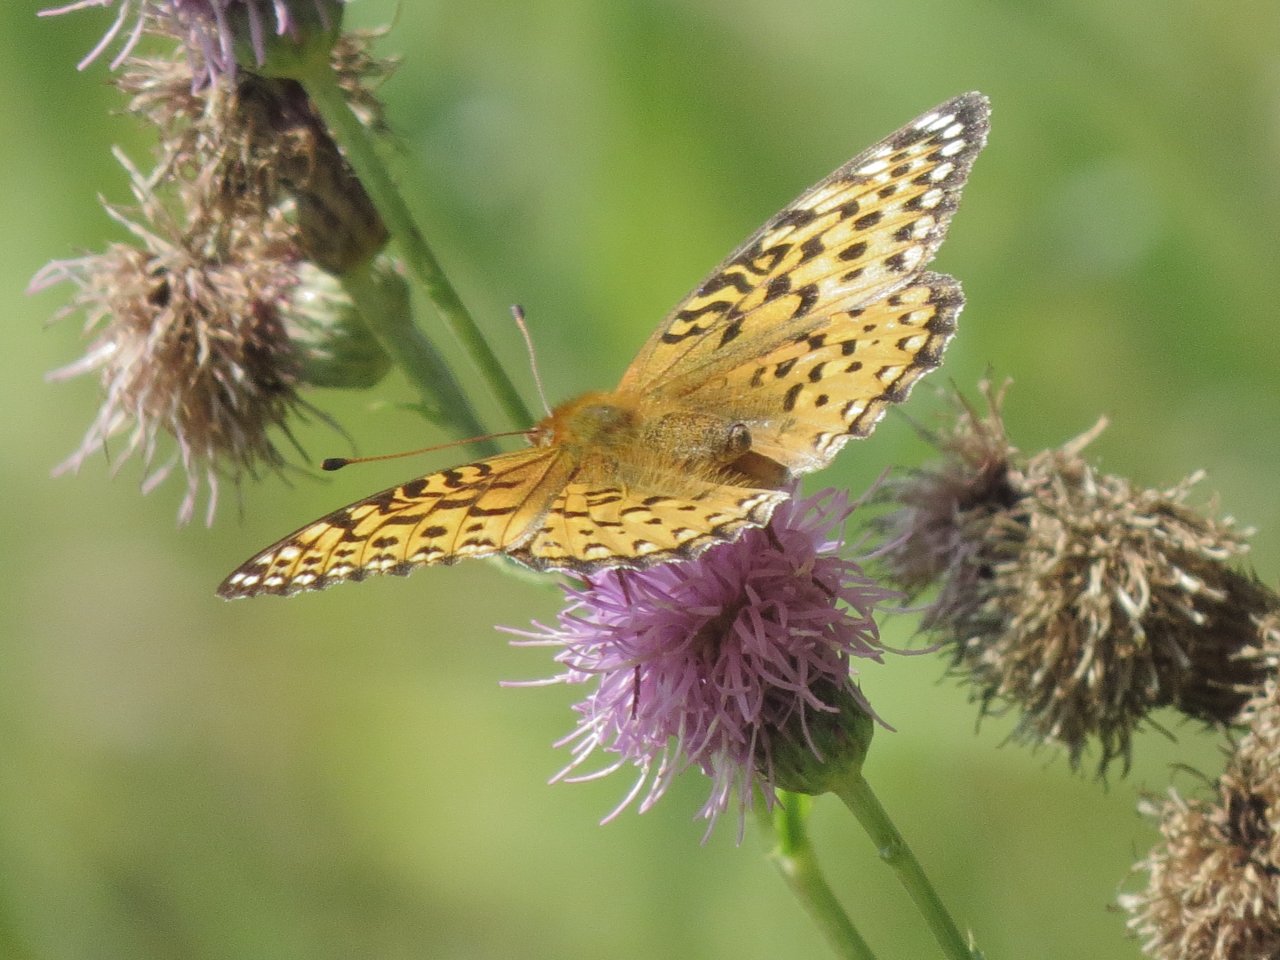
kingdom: Animalia
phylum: Arthropoda
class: Insecta
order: Lepidoptera
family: Nymphalidae
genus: Speyeria
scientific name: Speyeria aphrodite
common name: Aphrodite Fritillary
